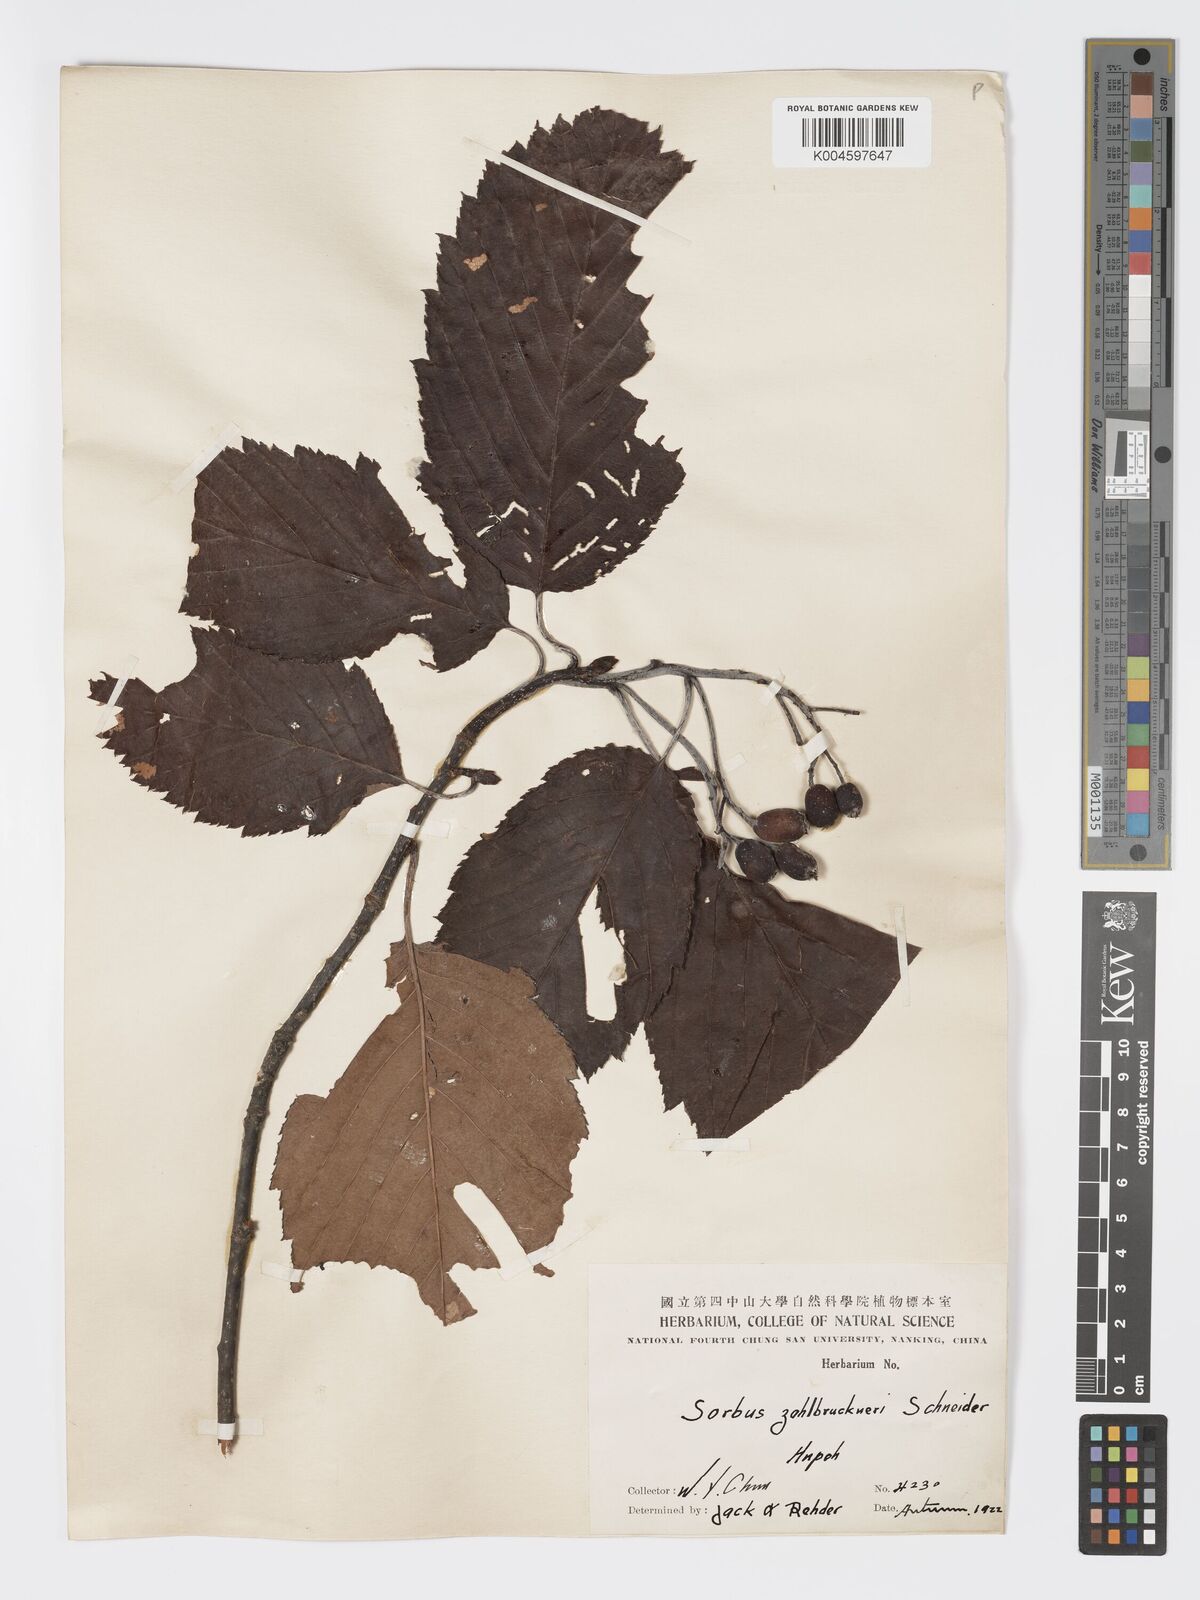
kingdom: Plantae
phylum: Tracheophyta
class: Magnoliopsida
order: Rosales
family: Rosaceae
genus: Sorbus
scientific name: Sorbus zahlbruckneri
